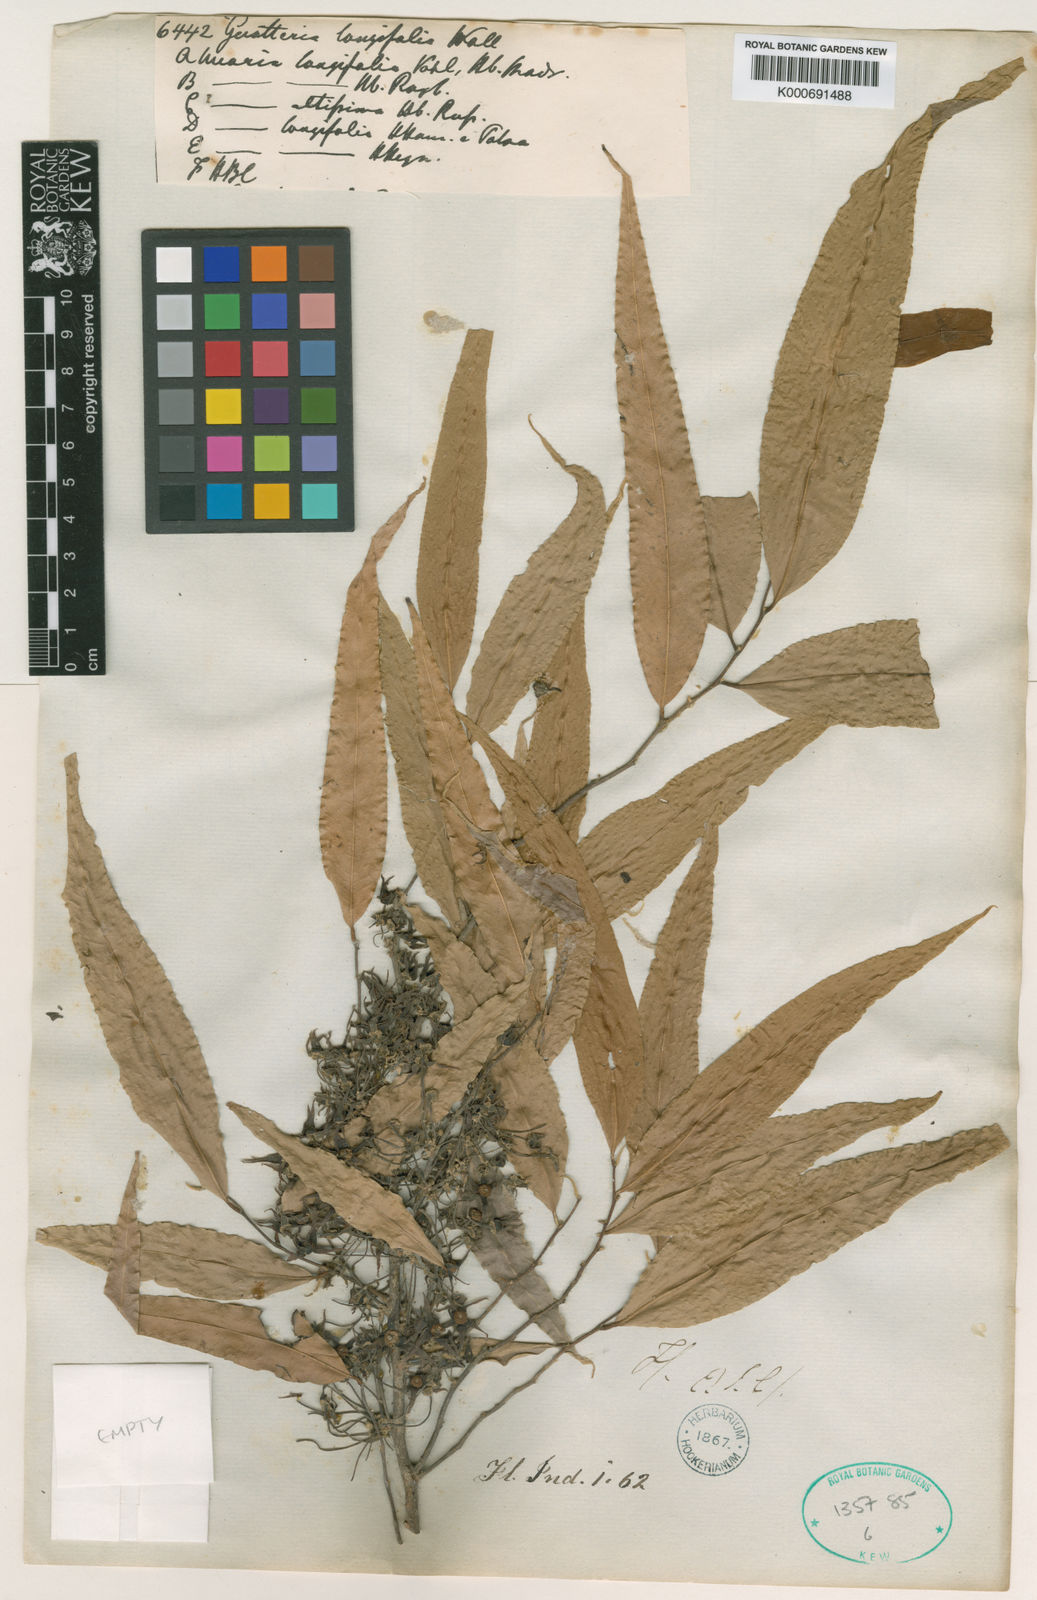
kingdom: Plantae
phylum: Tracheophyta
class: Magnoliopsida
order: Magnoliales
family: Annonaceae
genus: Polyalthia
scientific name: Polyalthia
